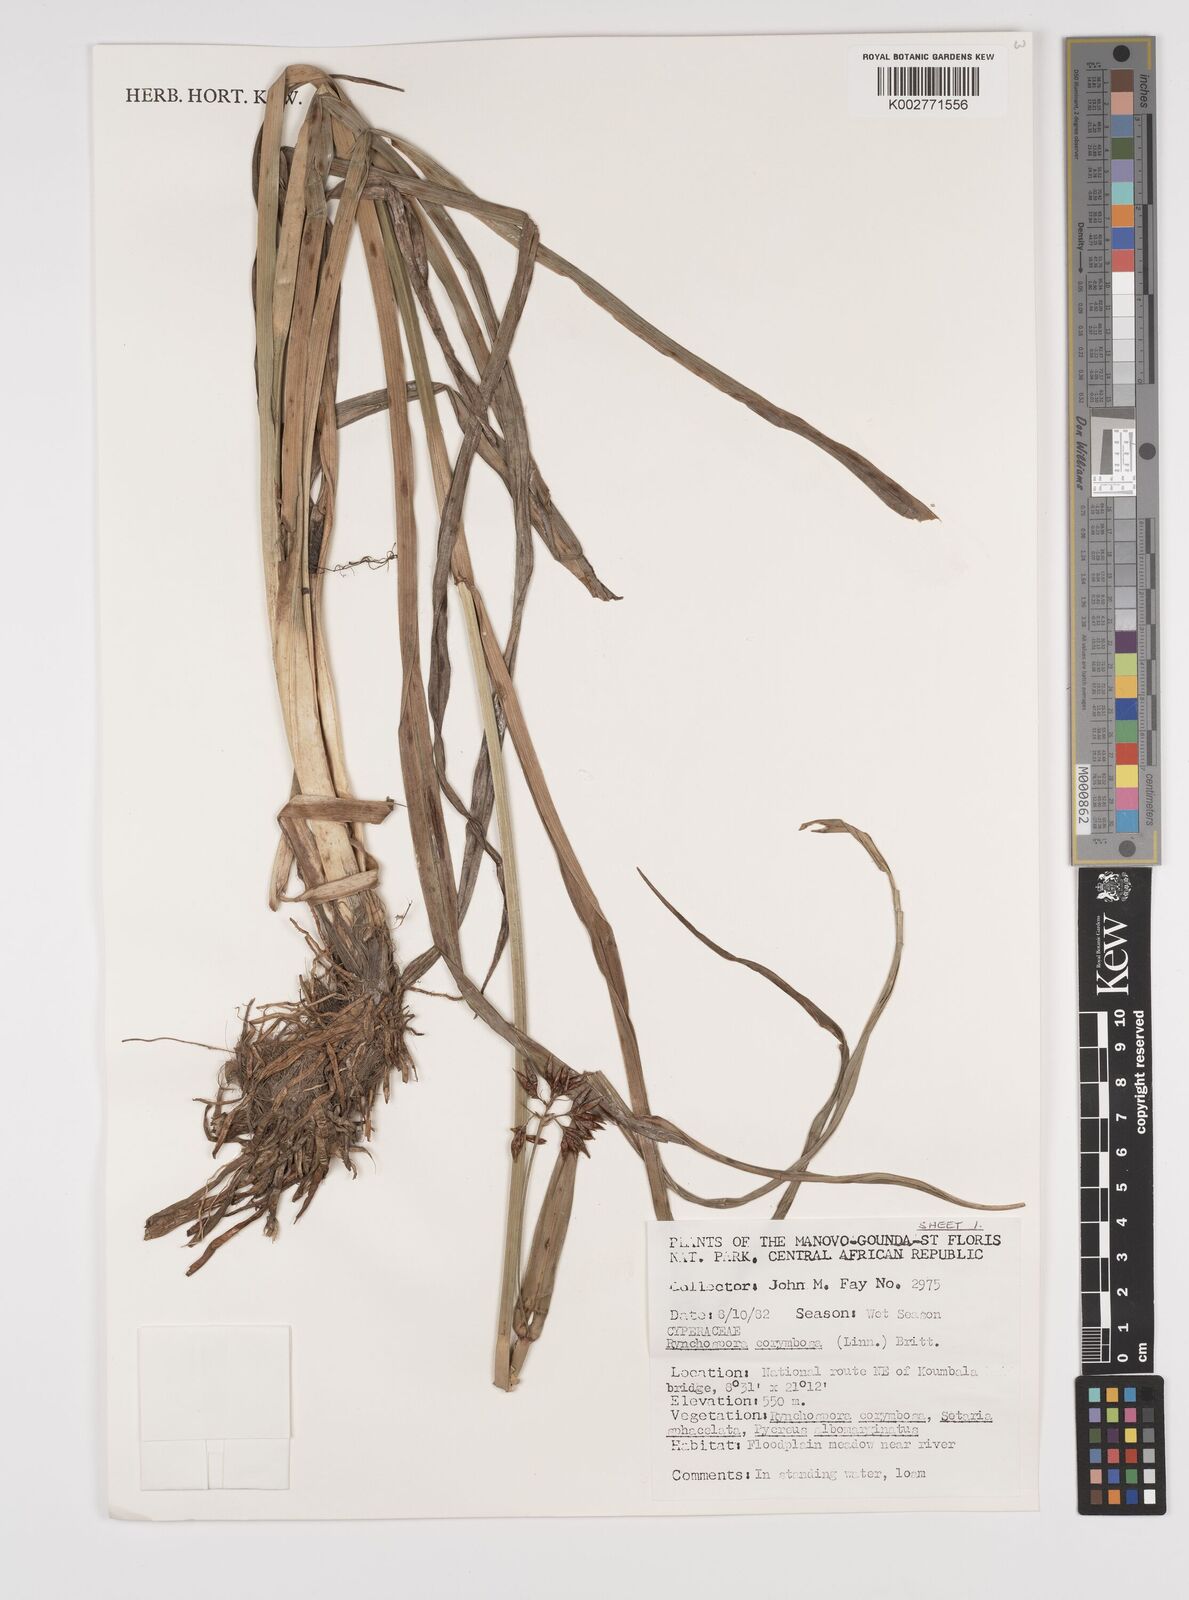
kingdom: Plantae
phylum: Tracheophyta
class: Liliopsida
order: Poales
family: Cyperaceae
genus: Rhynchospora
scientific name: Rhynchospora corymbosa
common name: Golden beak sedge
